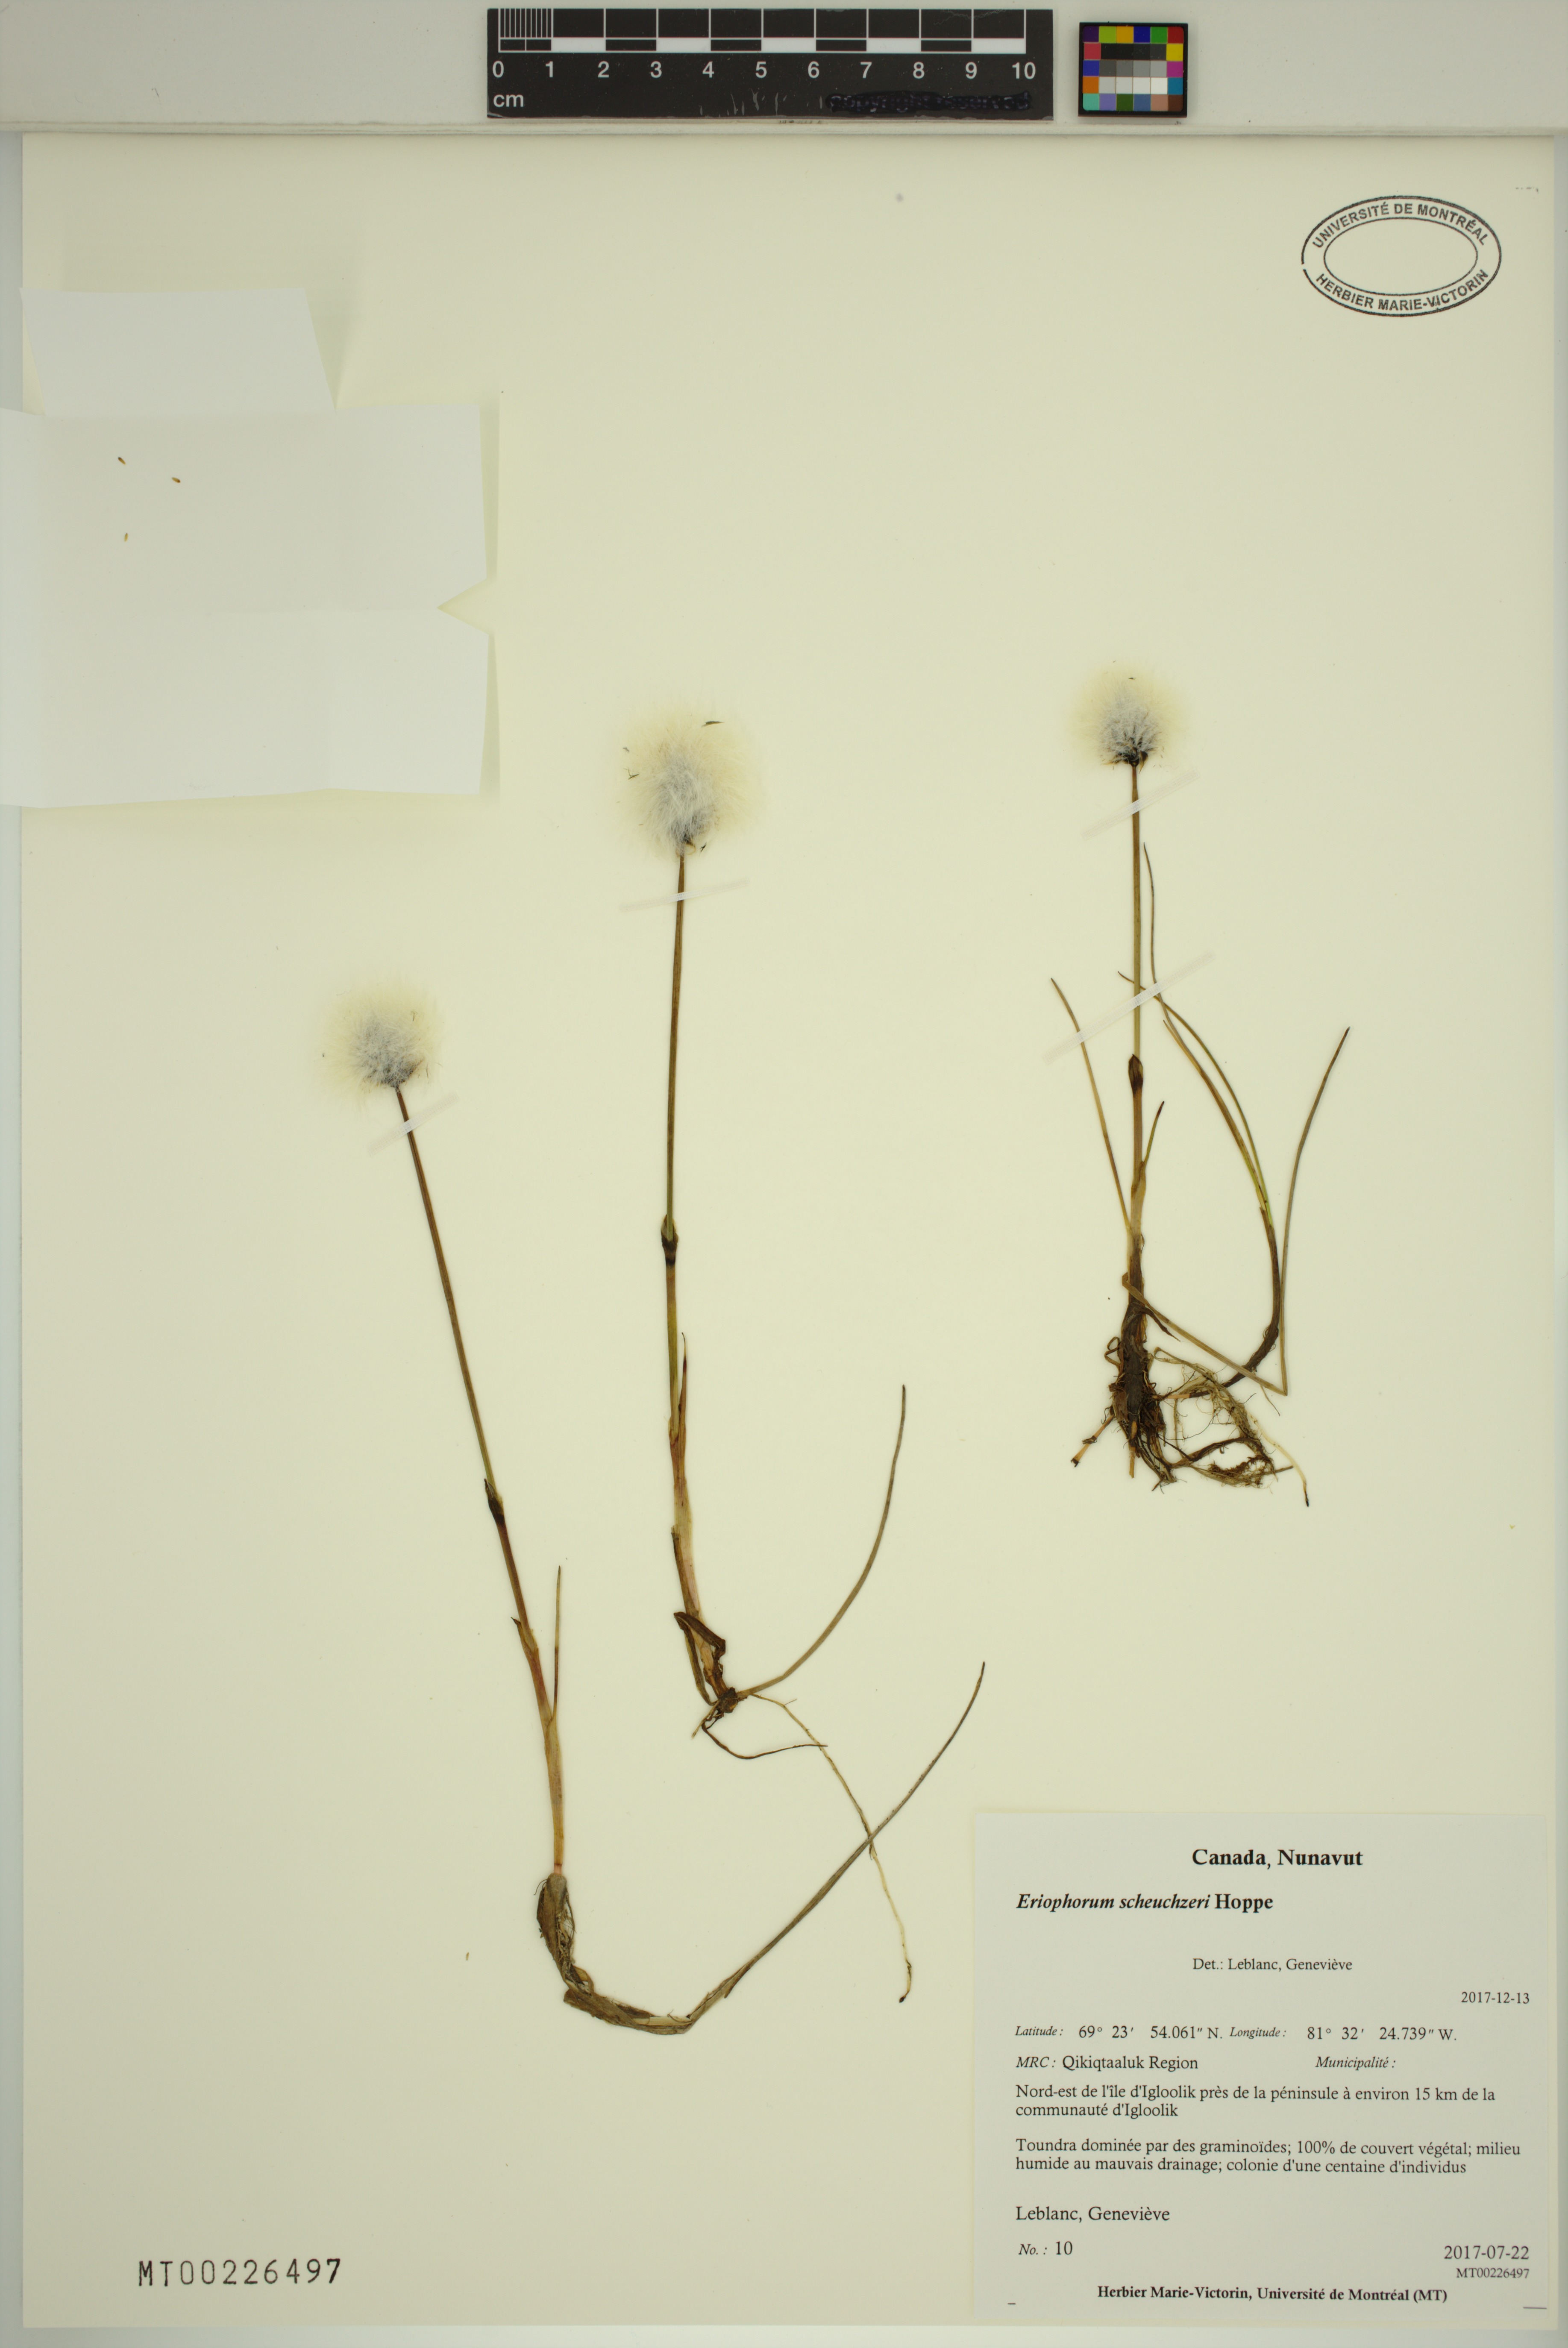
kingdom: Plantae
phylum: Tracheophyta
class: Liliopsida
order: Poales
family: Cyperaceae
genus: Eriophorum
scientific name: Eriophorum scheuchzeri
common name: Scheuchzer's cottongrass
